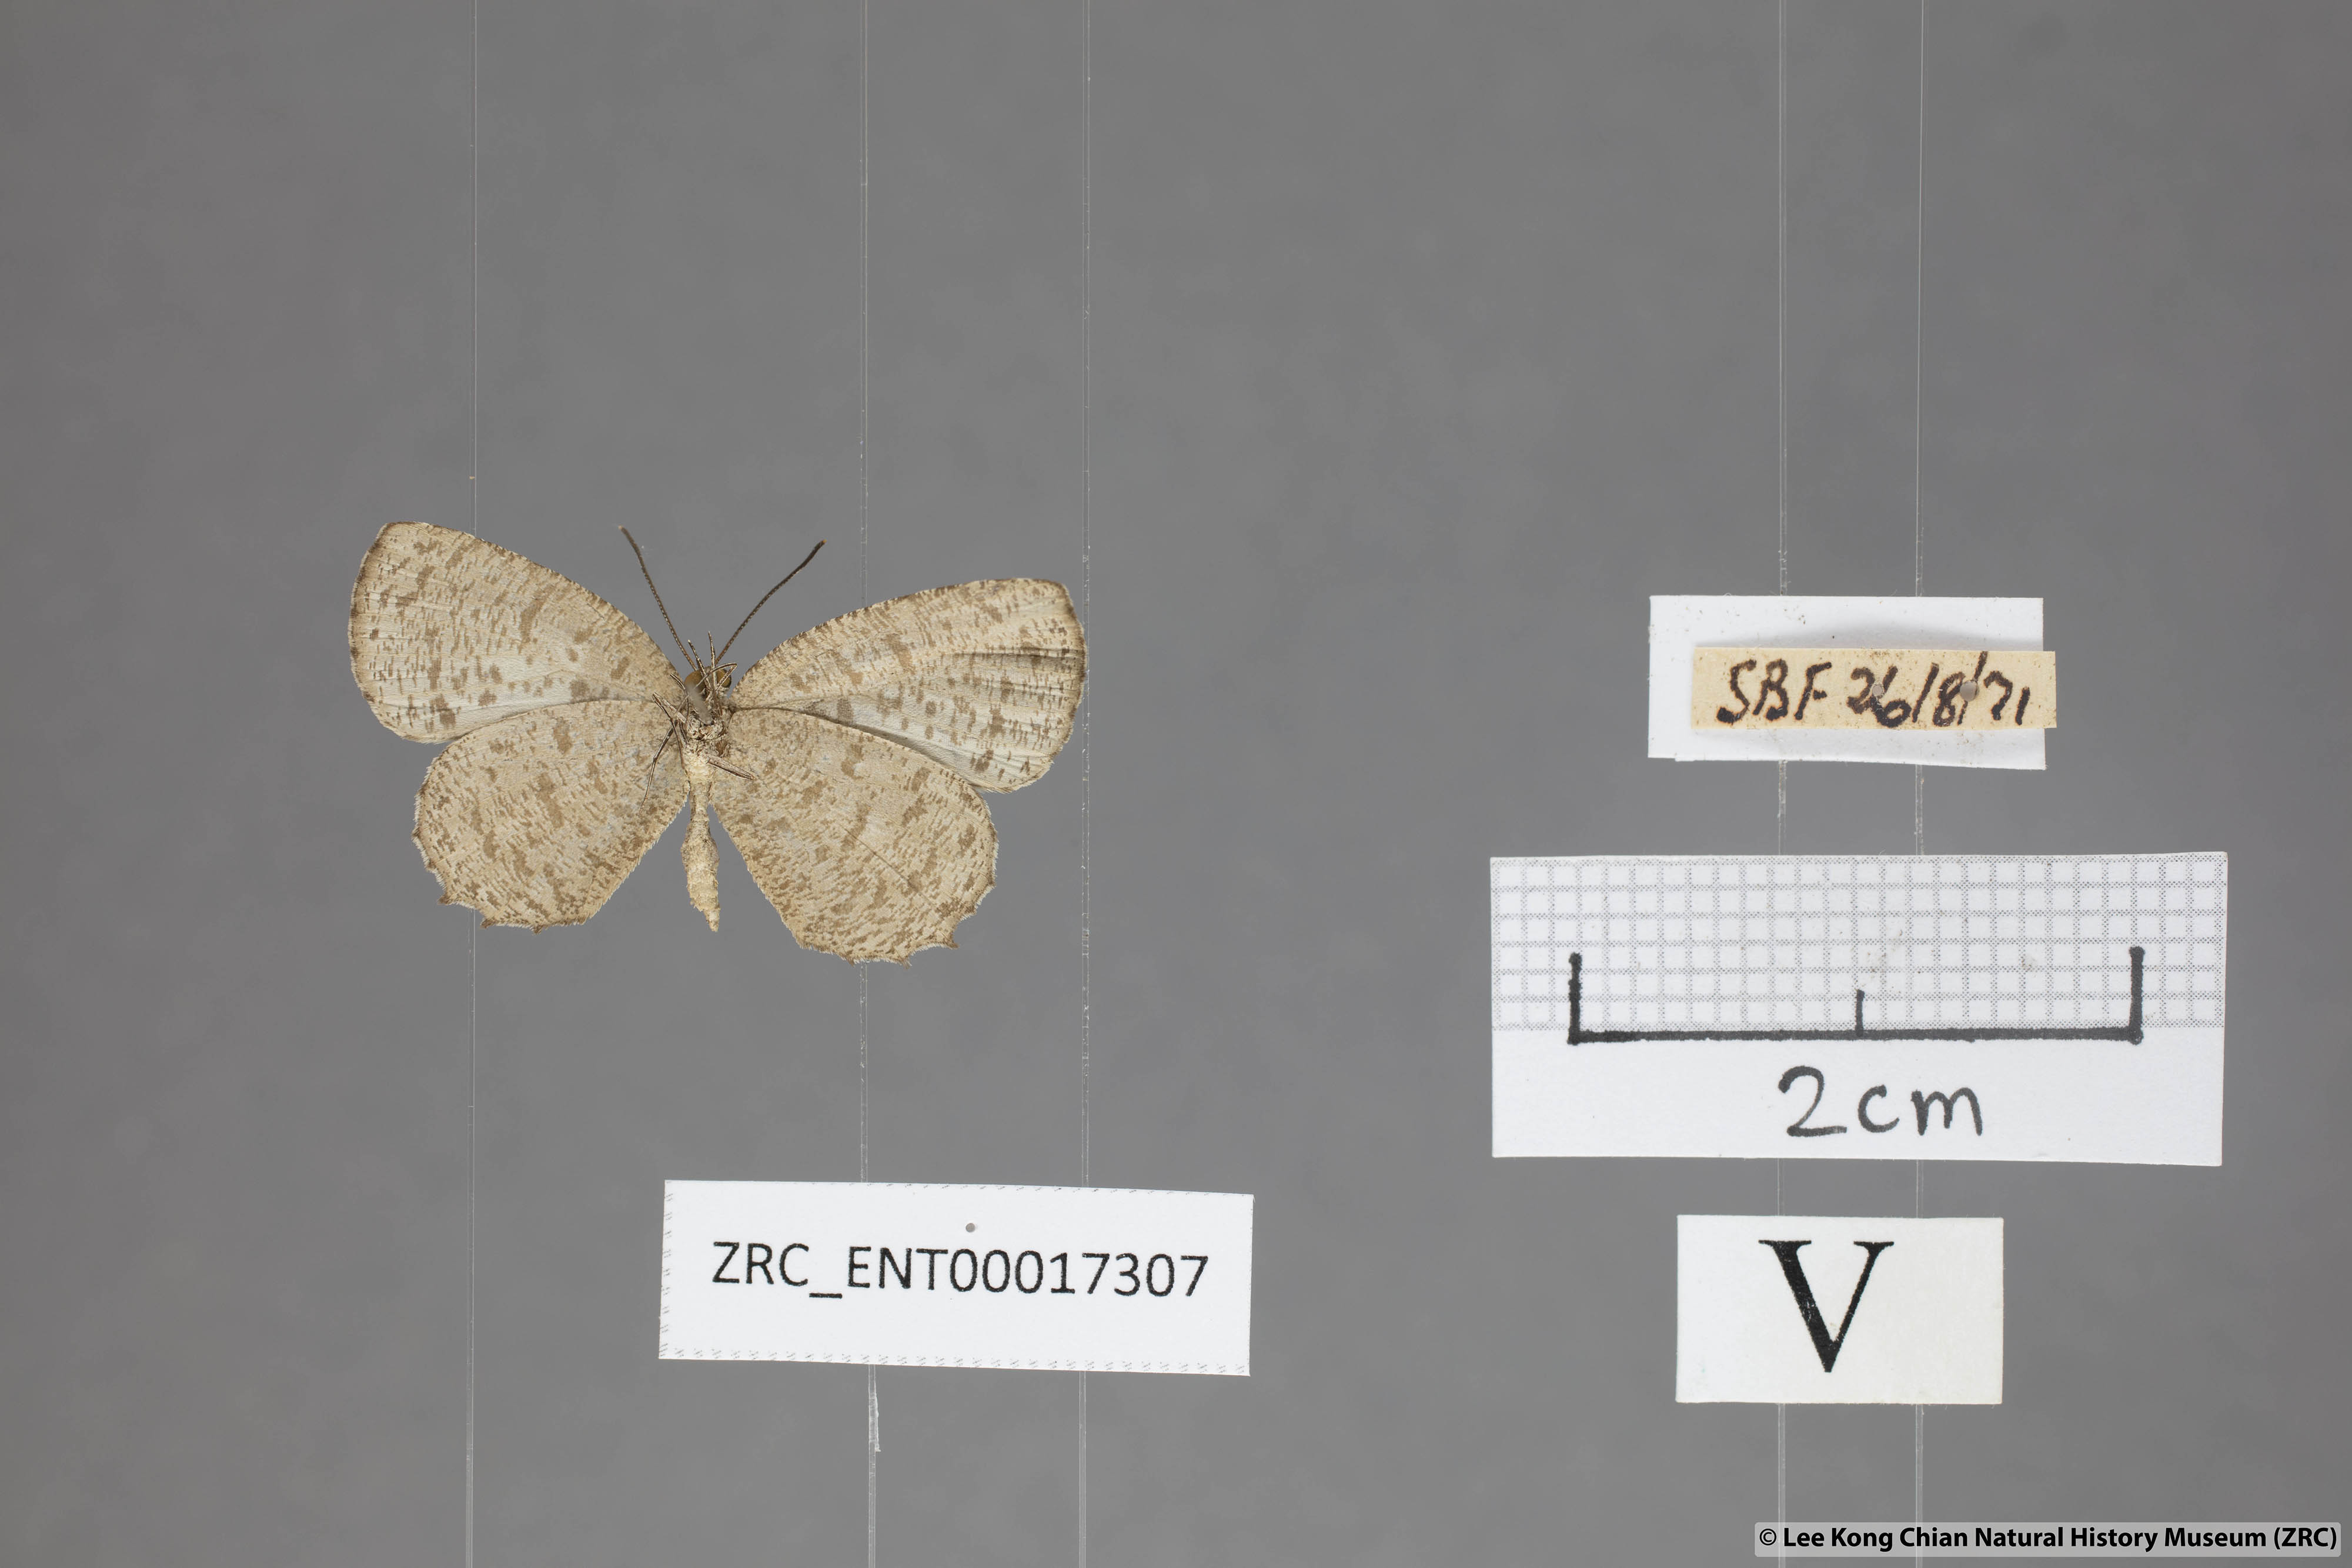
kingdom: Animalia
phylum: Arthropoda
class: Insecta
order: Lepidoptera
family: Lycaenidae
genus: Allotinus
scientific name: Allotinus subviolaceus
